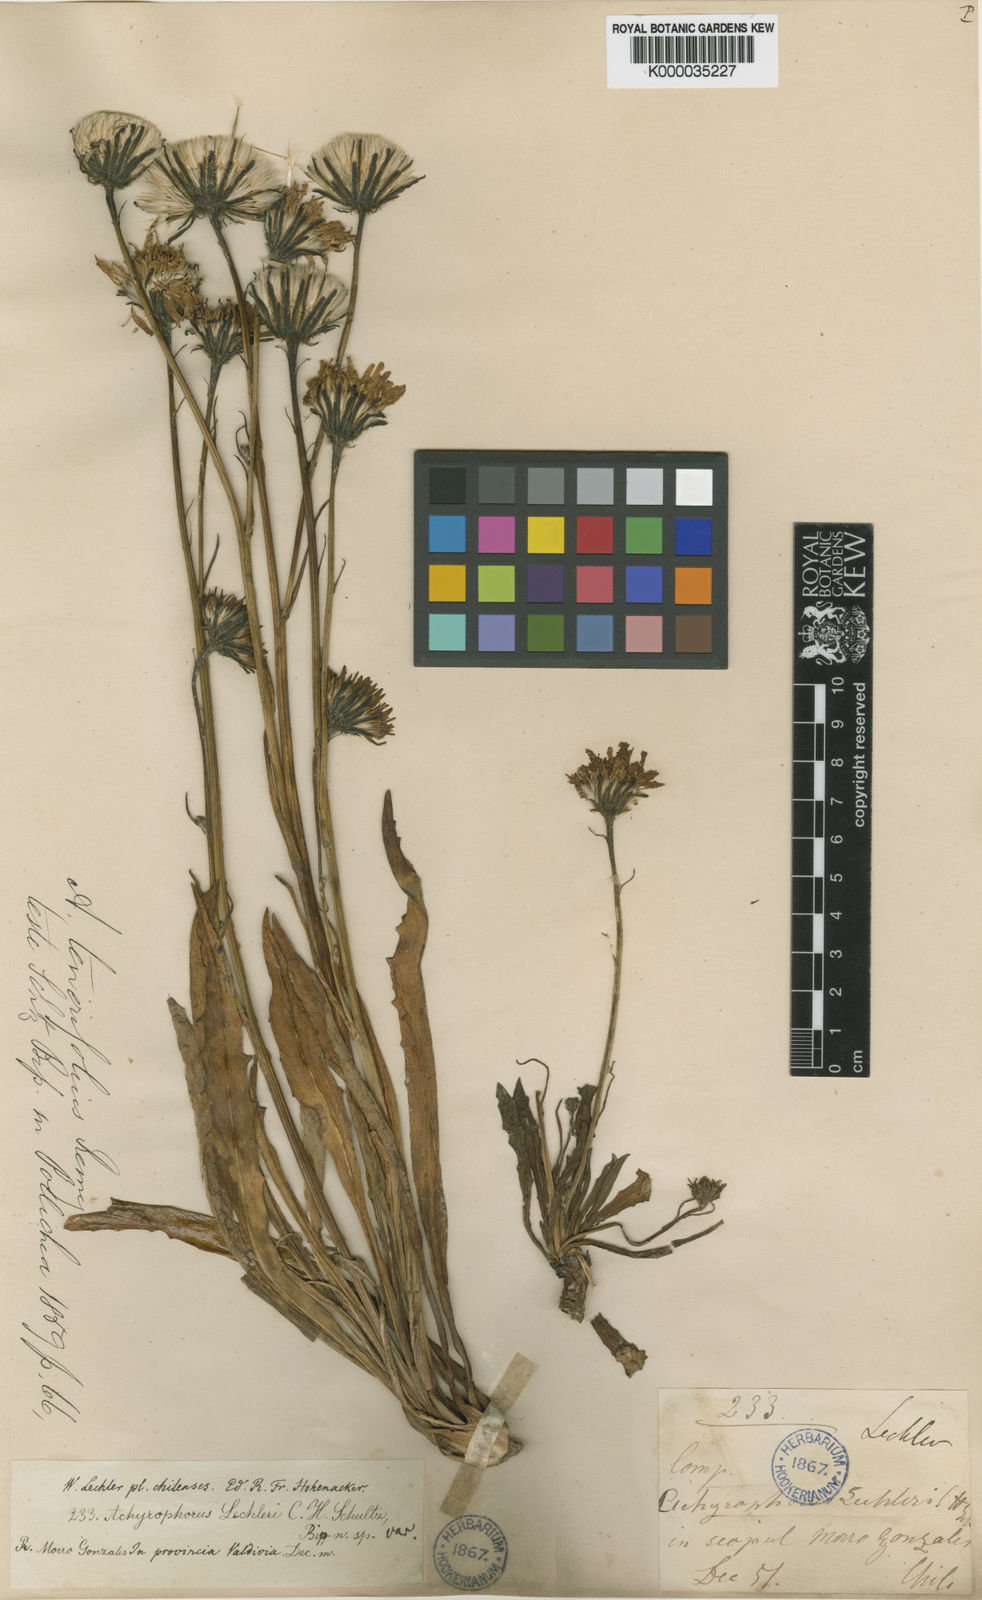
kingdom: Plantae
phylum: Tracheophyta
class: Magnoliopsida
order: Asterales
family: Asteraceae
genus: Hypochaeris
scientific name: Hypochaeris
